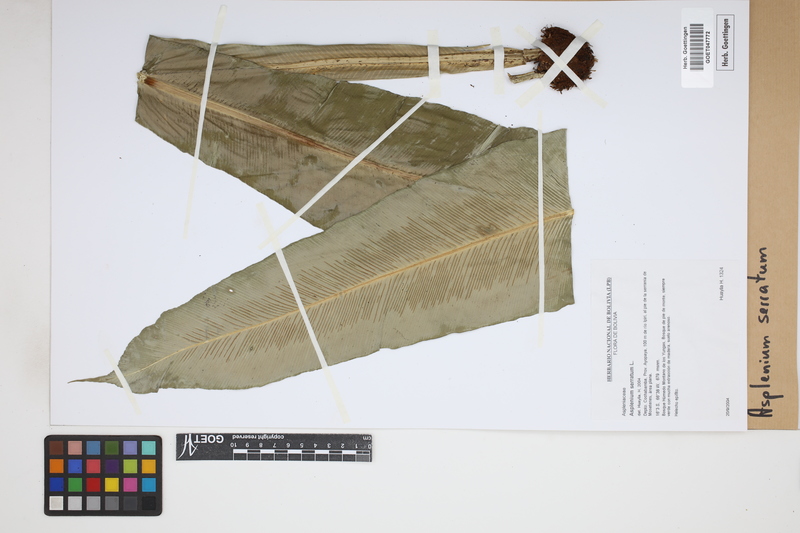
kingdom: Plantae
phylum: Tracheophyta
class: Polypodiopsida
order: Polypodiales
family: Aspleniaceae
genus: Asplenium
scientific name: Asplenium serratum
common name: Wild birdnest fern
